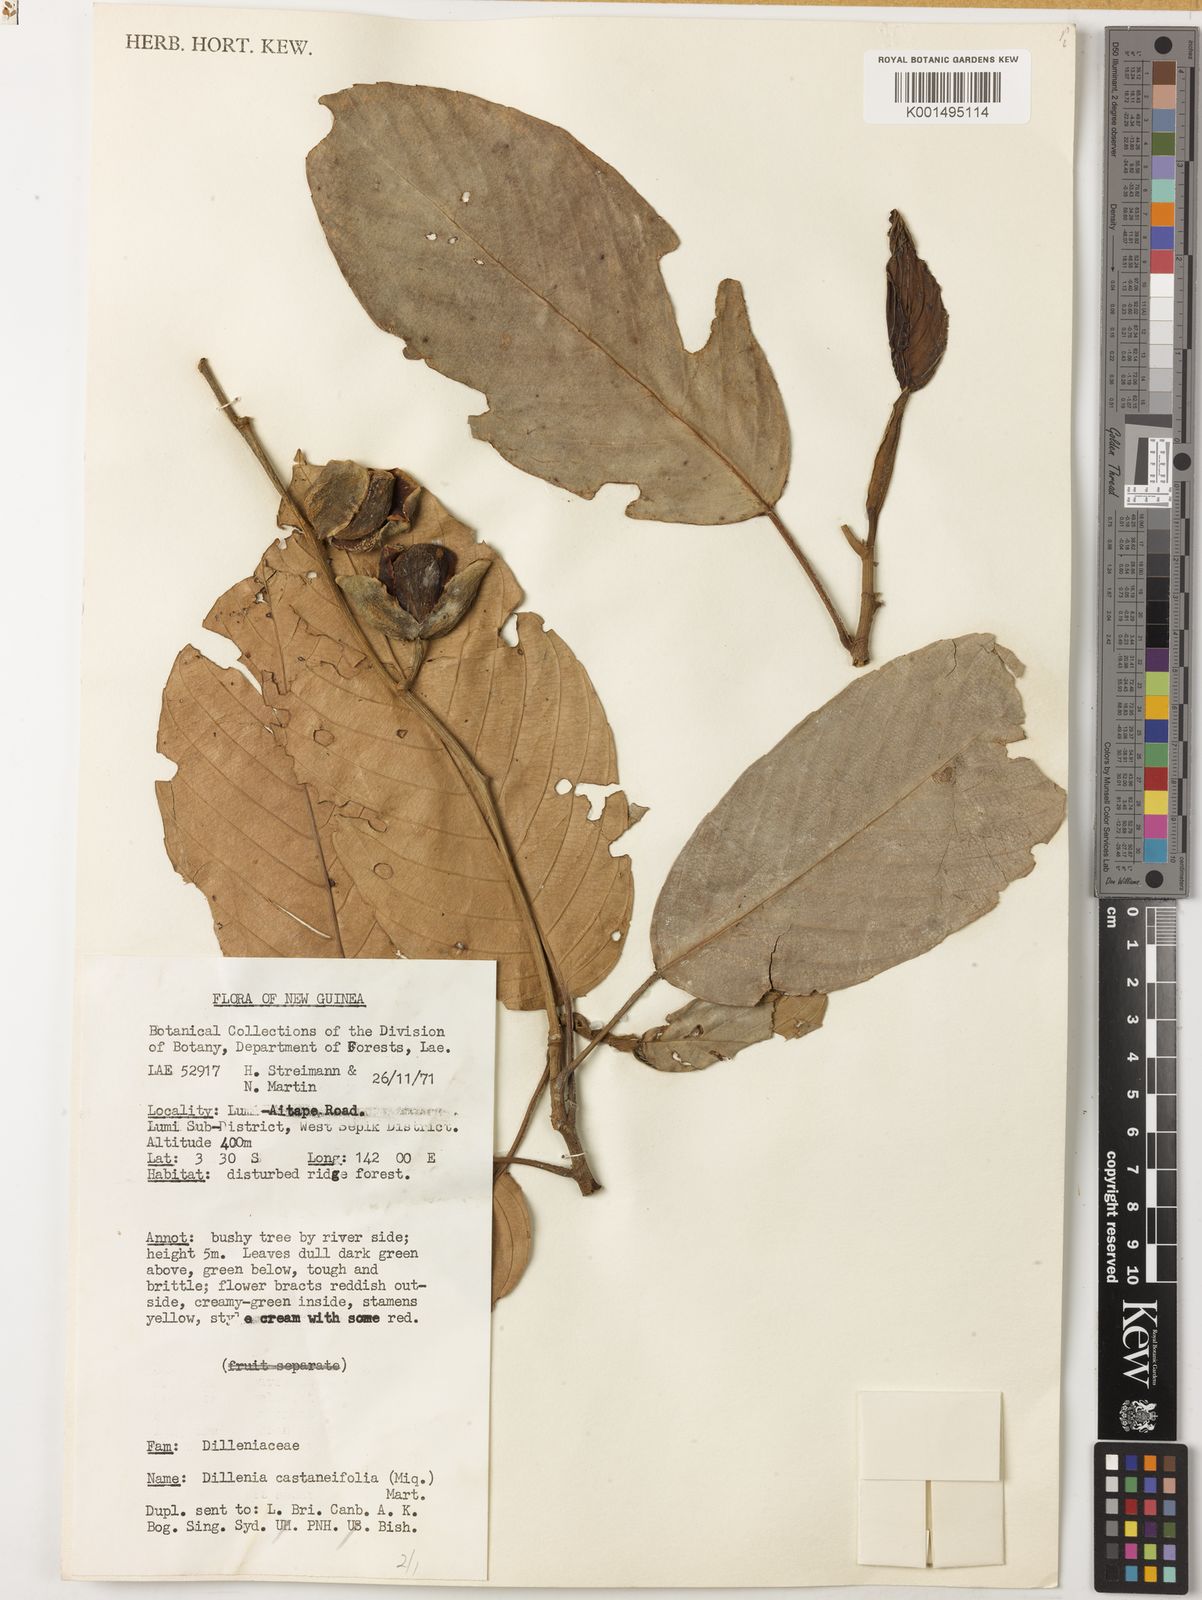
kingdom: Plantae
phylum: Tracheophyta
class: Magnoliopsida
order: Dilleniales
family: Dilleniaceae
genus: Dillenia
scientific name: Dillenia castaneifolia
